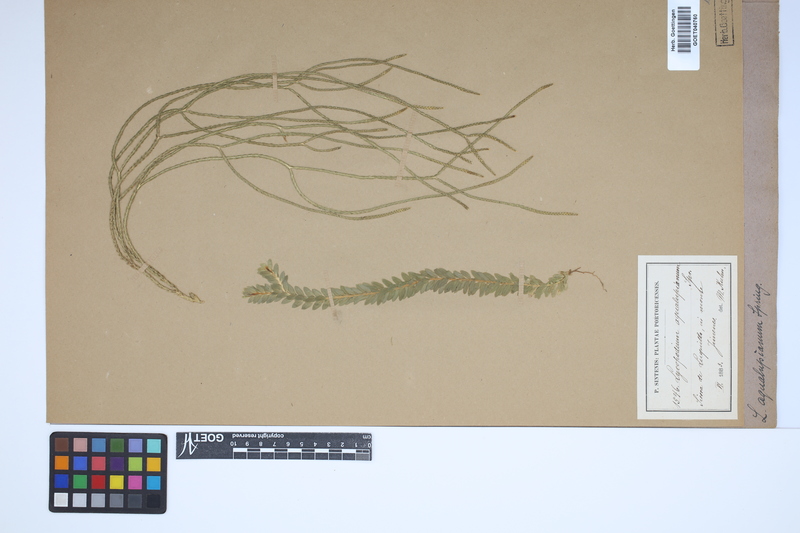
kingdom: Plantae
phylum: Tracheophyta
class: Lycopodiopsida
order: Lycopodiales
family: Lycopodiaceae
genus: Phlegmariurus
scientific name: Phlegmariurus aqualupianus
